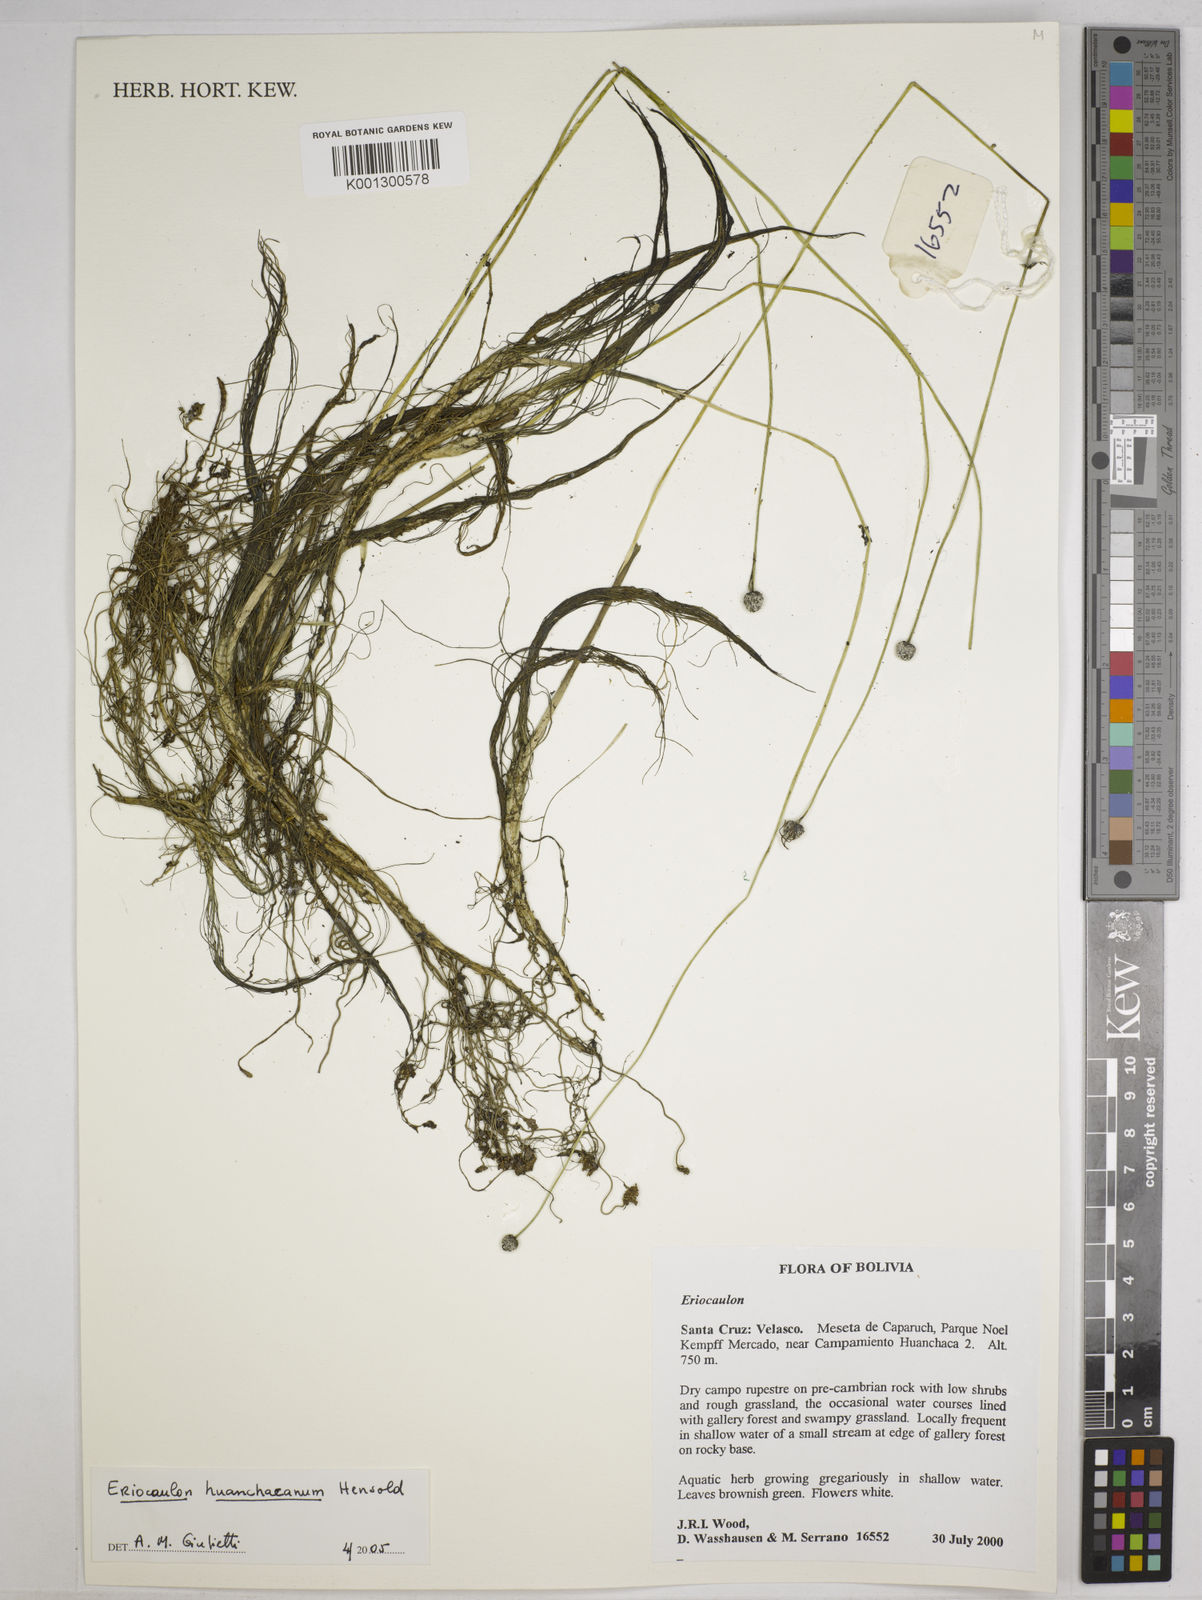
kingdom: Plantae
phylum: Tracheophyta
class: Liliopsida
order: Poales
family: Eriocaulaceae
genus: Eriocaulon
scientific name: Eriocaulon huanchacanum
